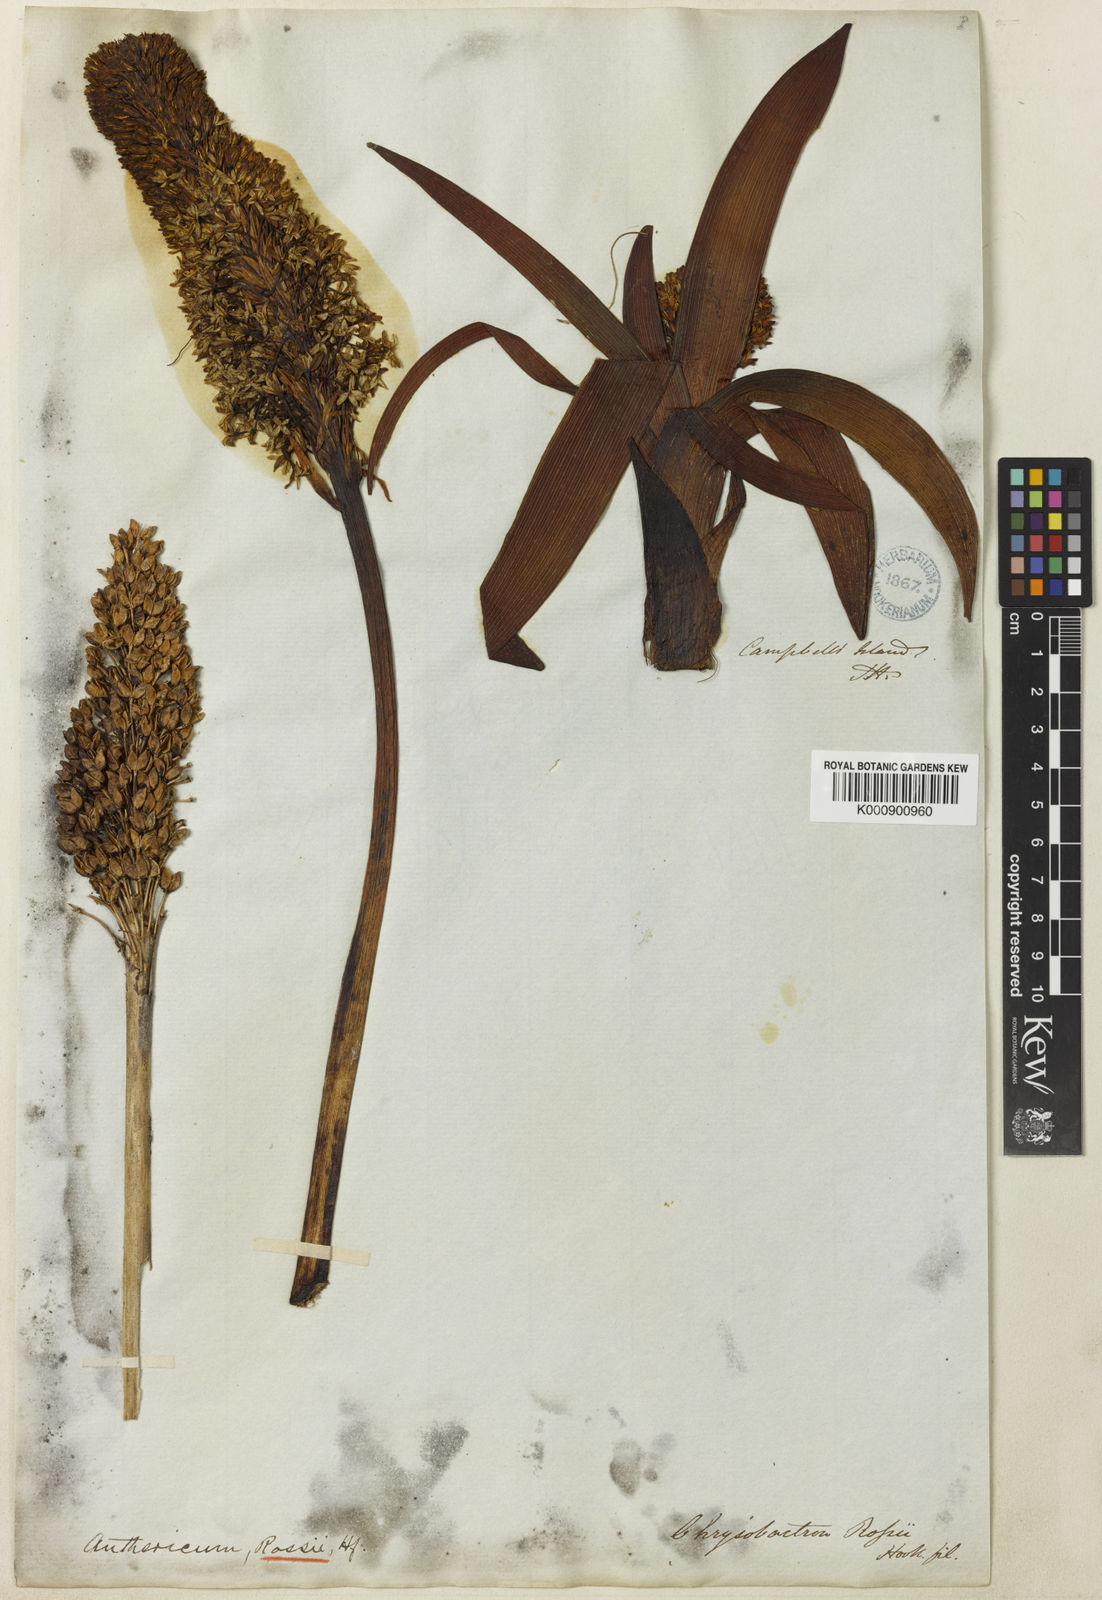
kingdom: Plantae
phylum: Tracheophyta
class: Liliopsida
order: Asparagales
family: Asphodelaceae
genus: Bulbinella
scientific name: Bulbinella
